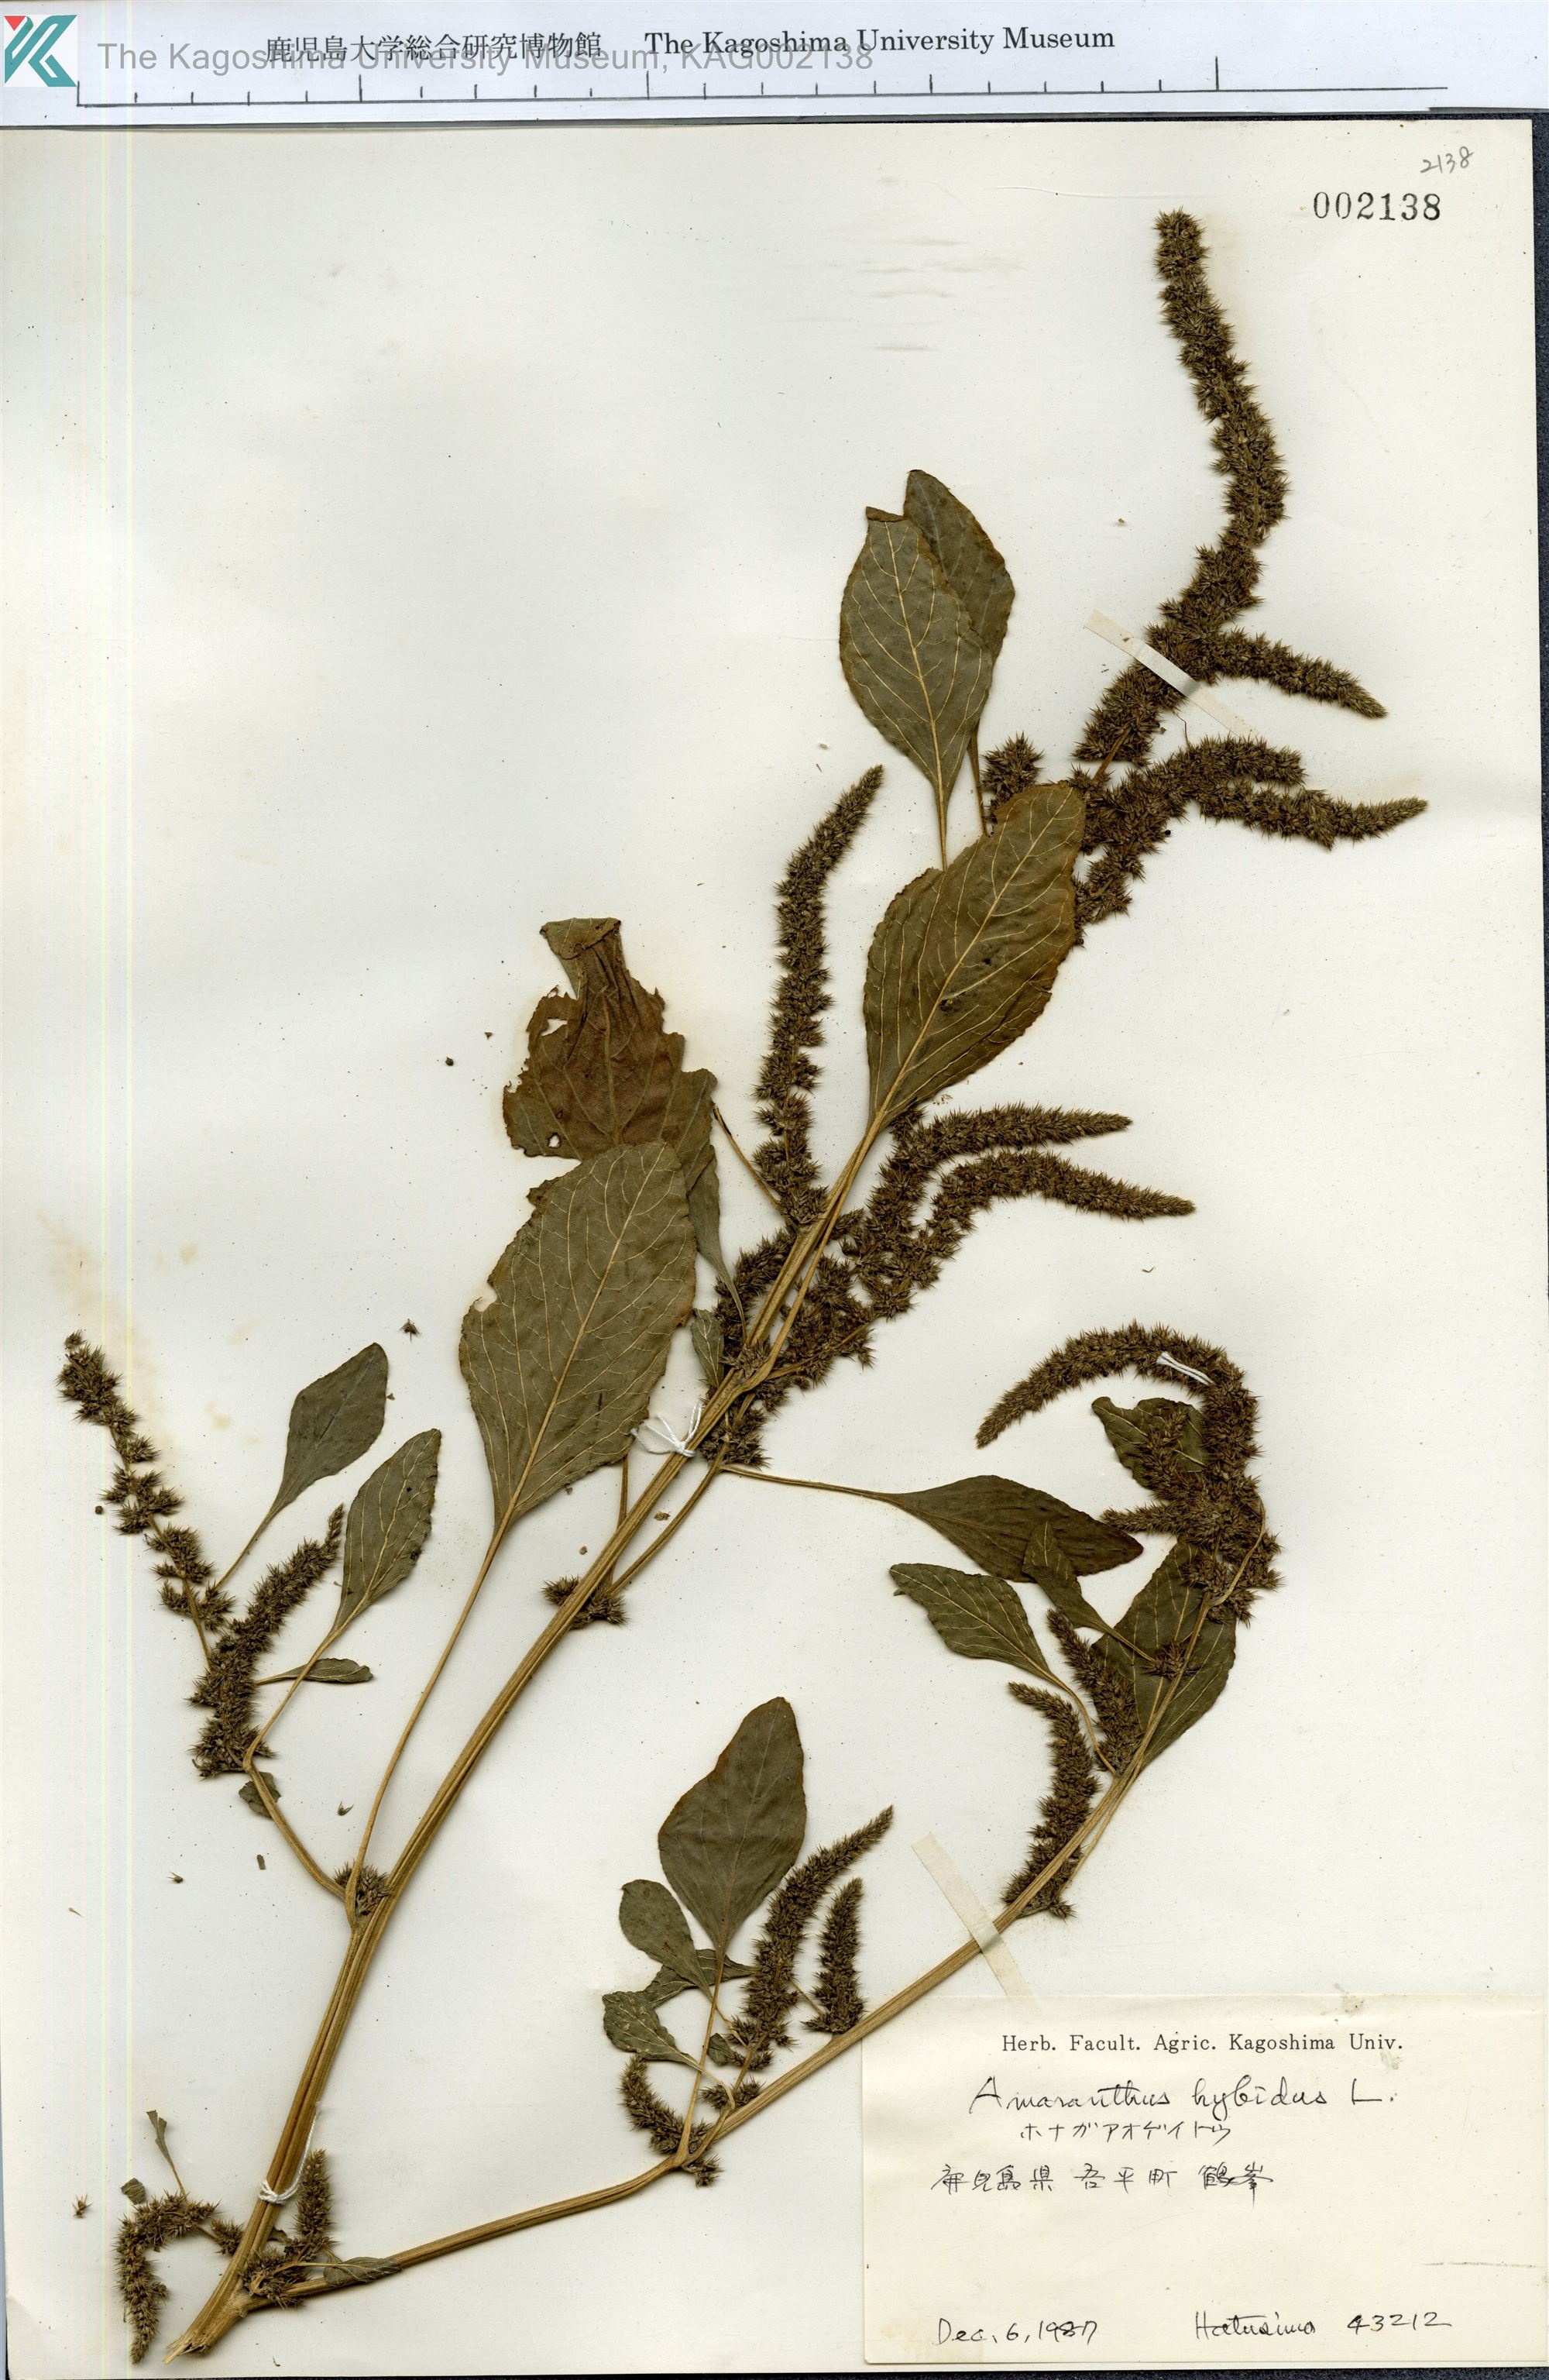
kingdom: Plantae
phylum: Tracheophyta
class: Magnoliopsida
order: Caryophyllales
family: Amaranthaceae
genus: Amaranthus
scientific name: Amaranthus hybridus
